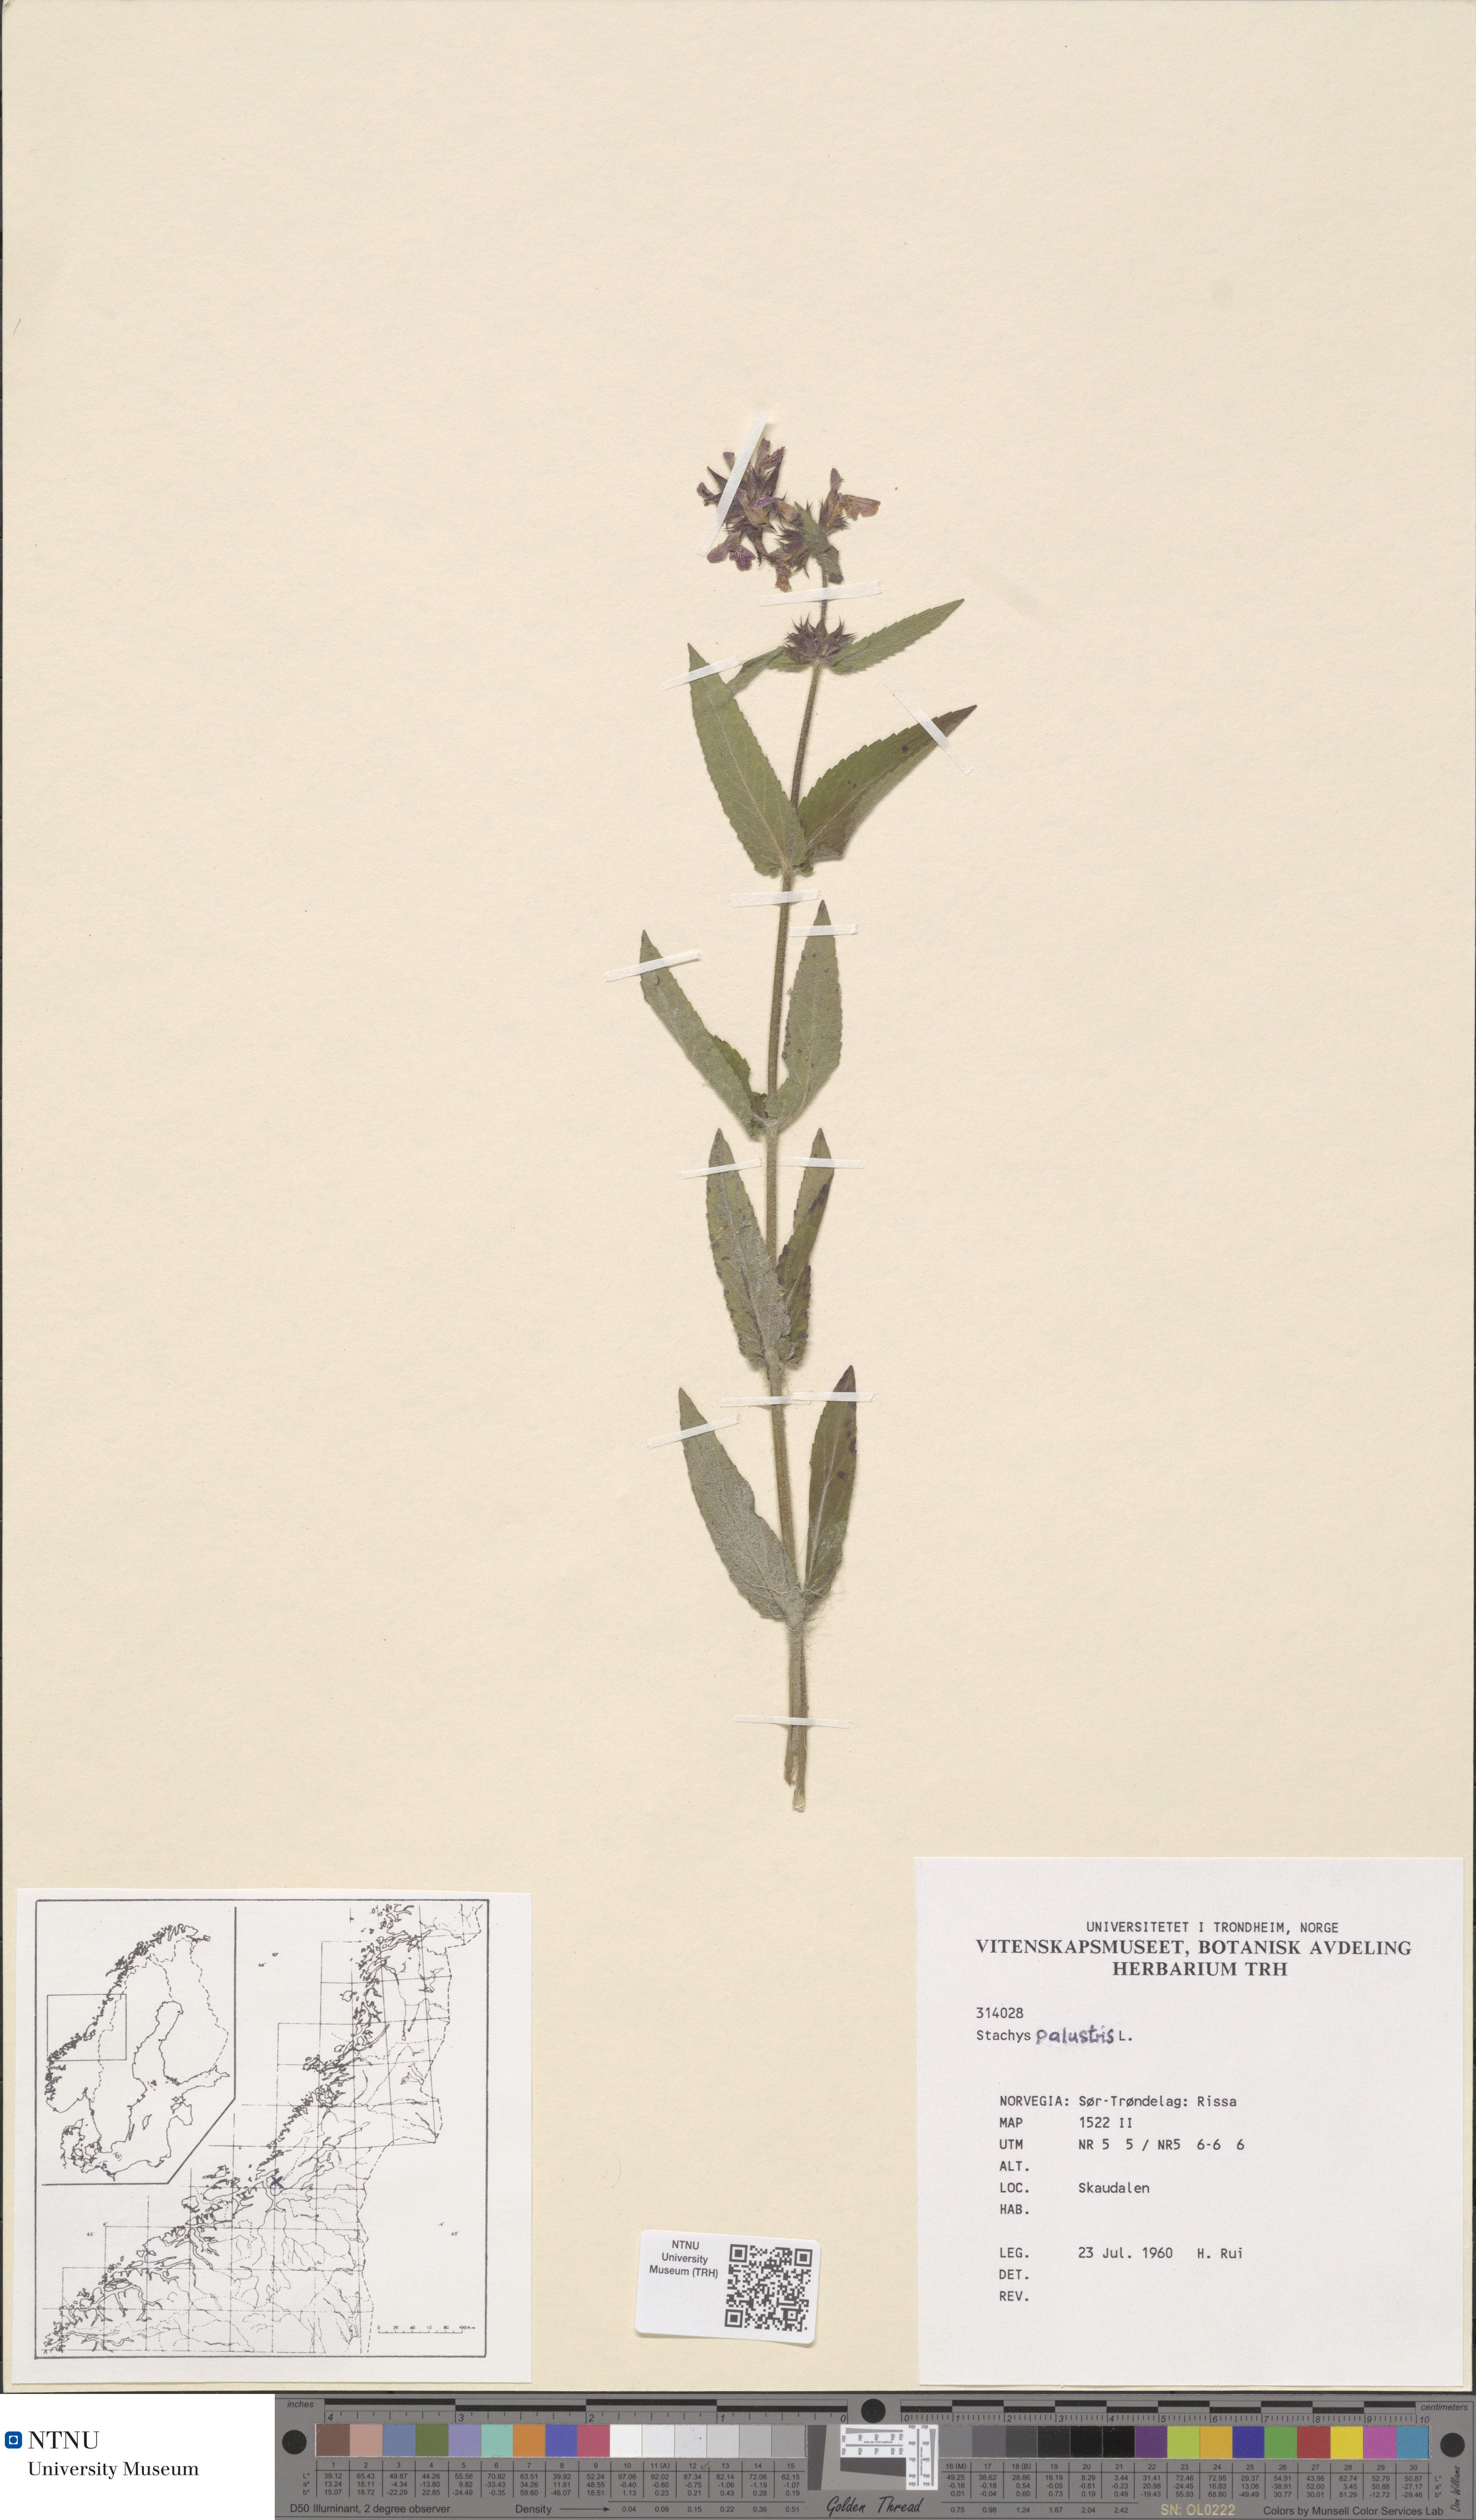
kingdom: Plantae
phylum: Tracheophyta
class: Magnoliopsida
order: Lamiales
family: Lamiaceae
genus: Stachys
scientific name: Stachys sylvatica
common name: Hedge woundwort
